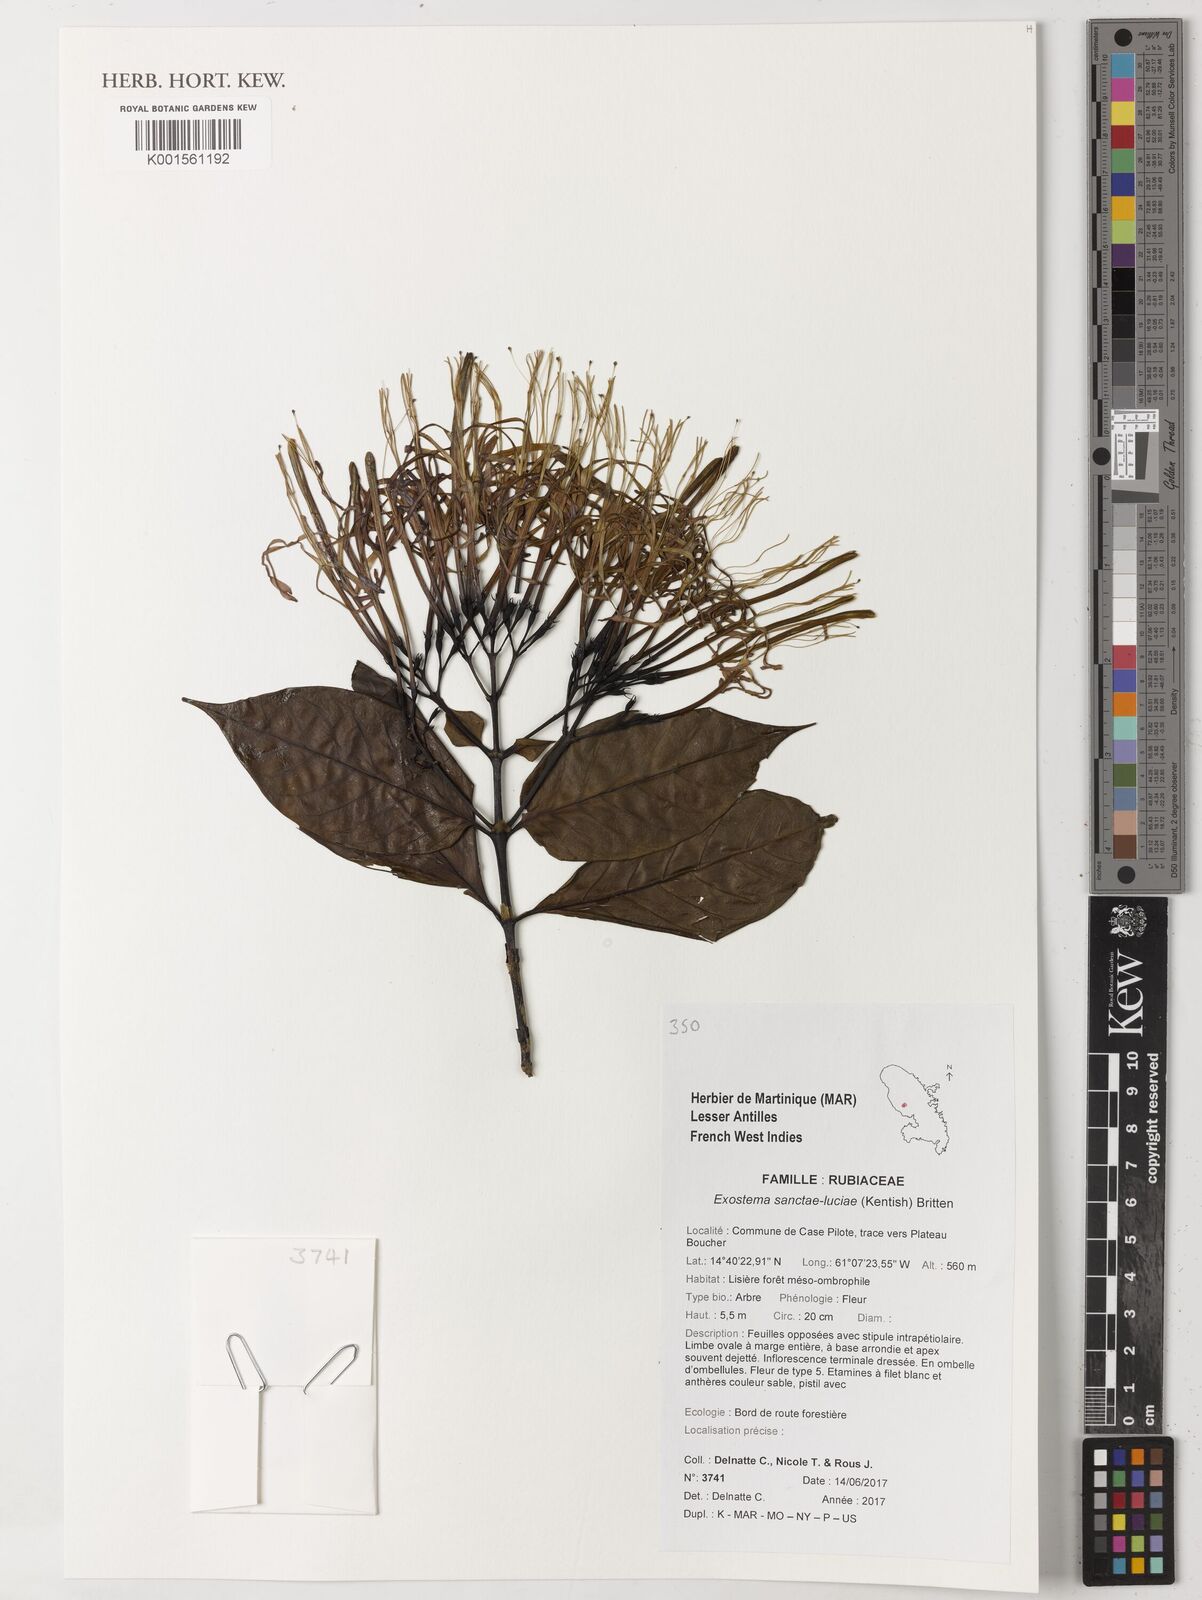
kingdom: Plantae
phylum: Tracheophyta
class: Magnoliopsida
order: Gentianales
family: Rubiaceae
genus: Solenandra
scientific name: Solenandra sanctae-luciae
